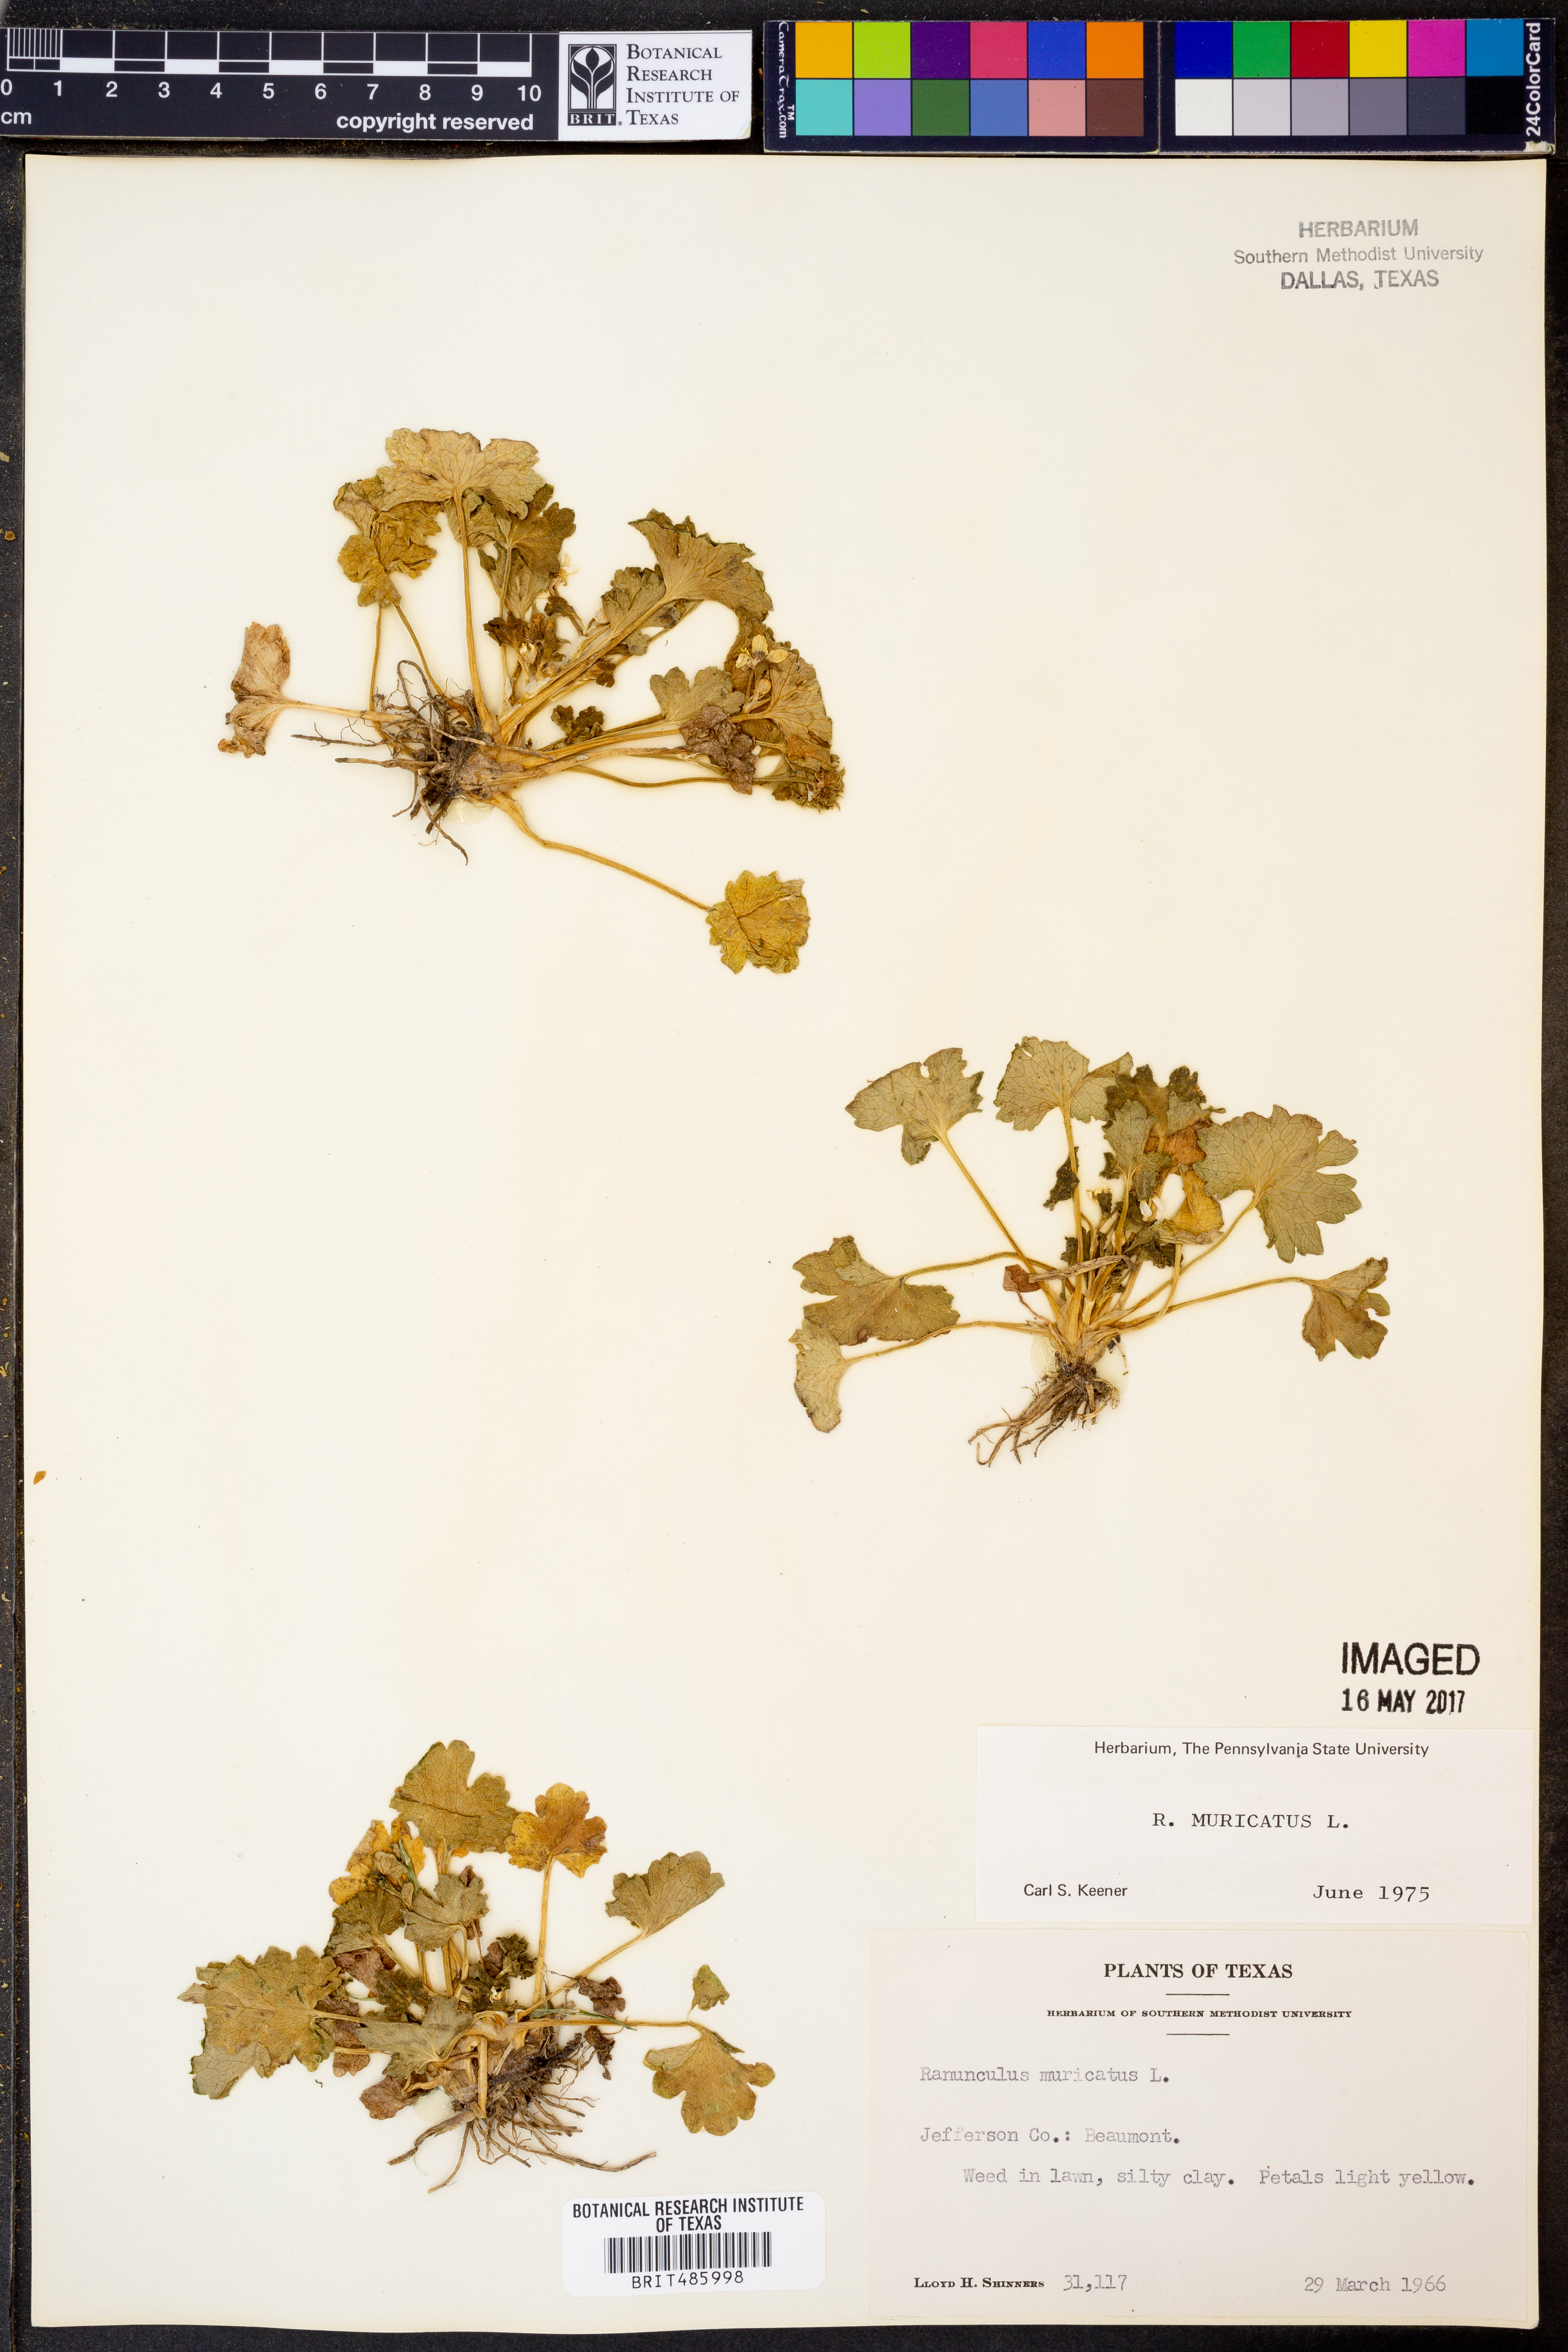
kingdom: Plantae
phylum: Tracheophyta
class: Magnoliopsida
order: Ranunculales
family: Ranunculaceae
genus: Ranunculus
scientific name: Ranunculus muricatus
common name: Rough-fruited buttercup
